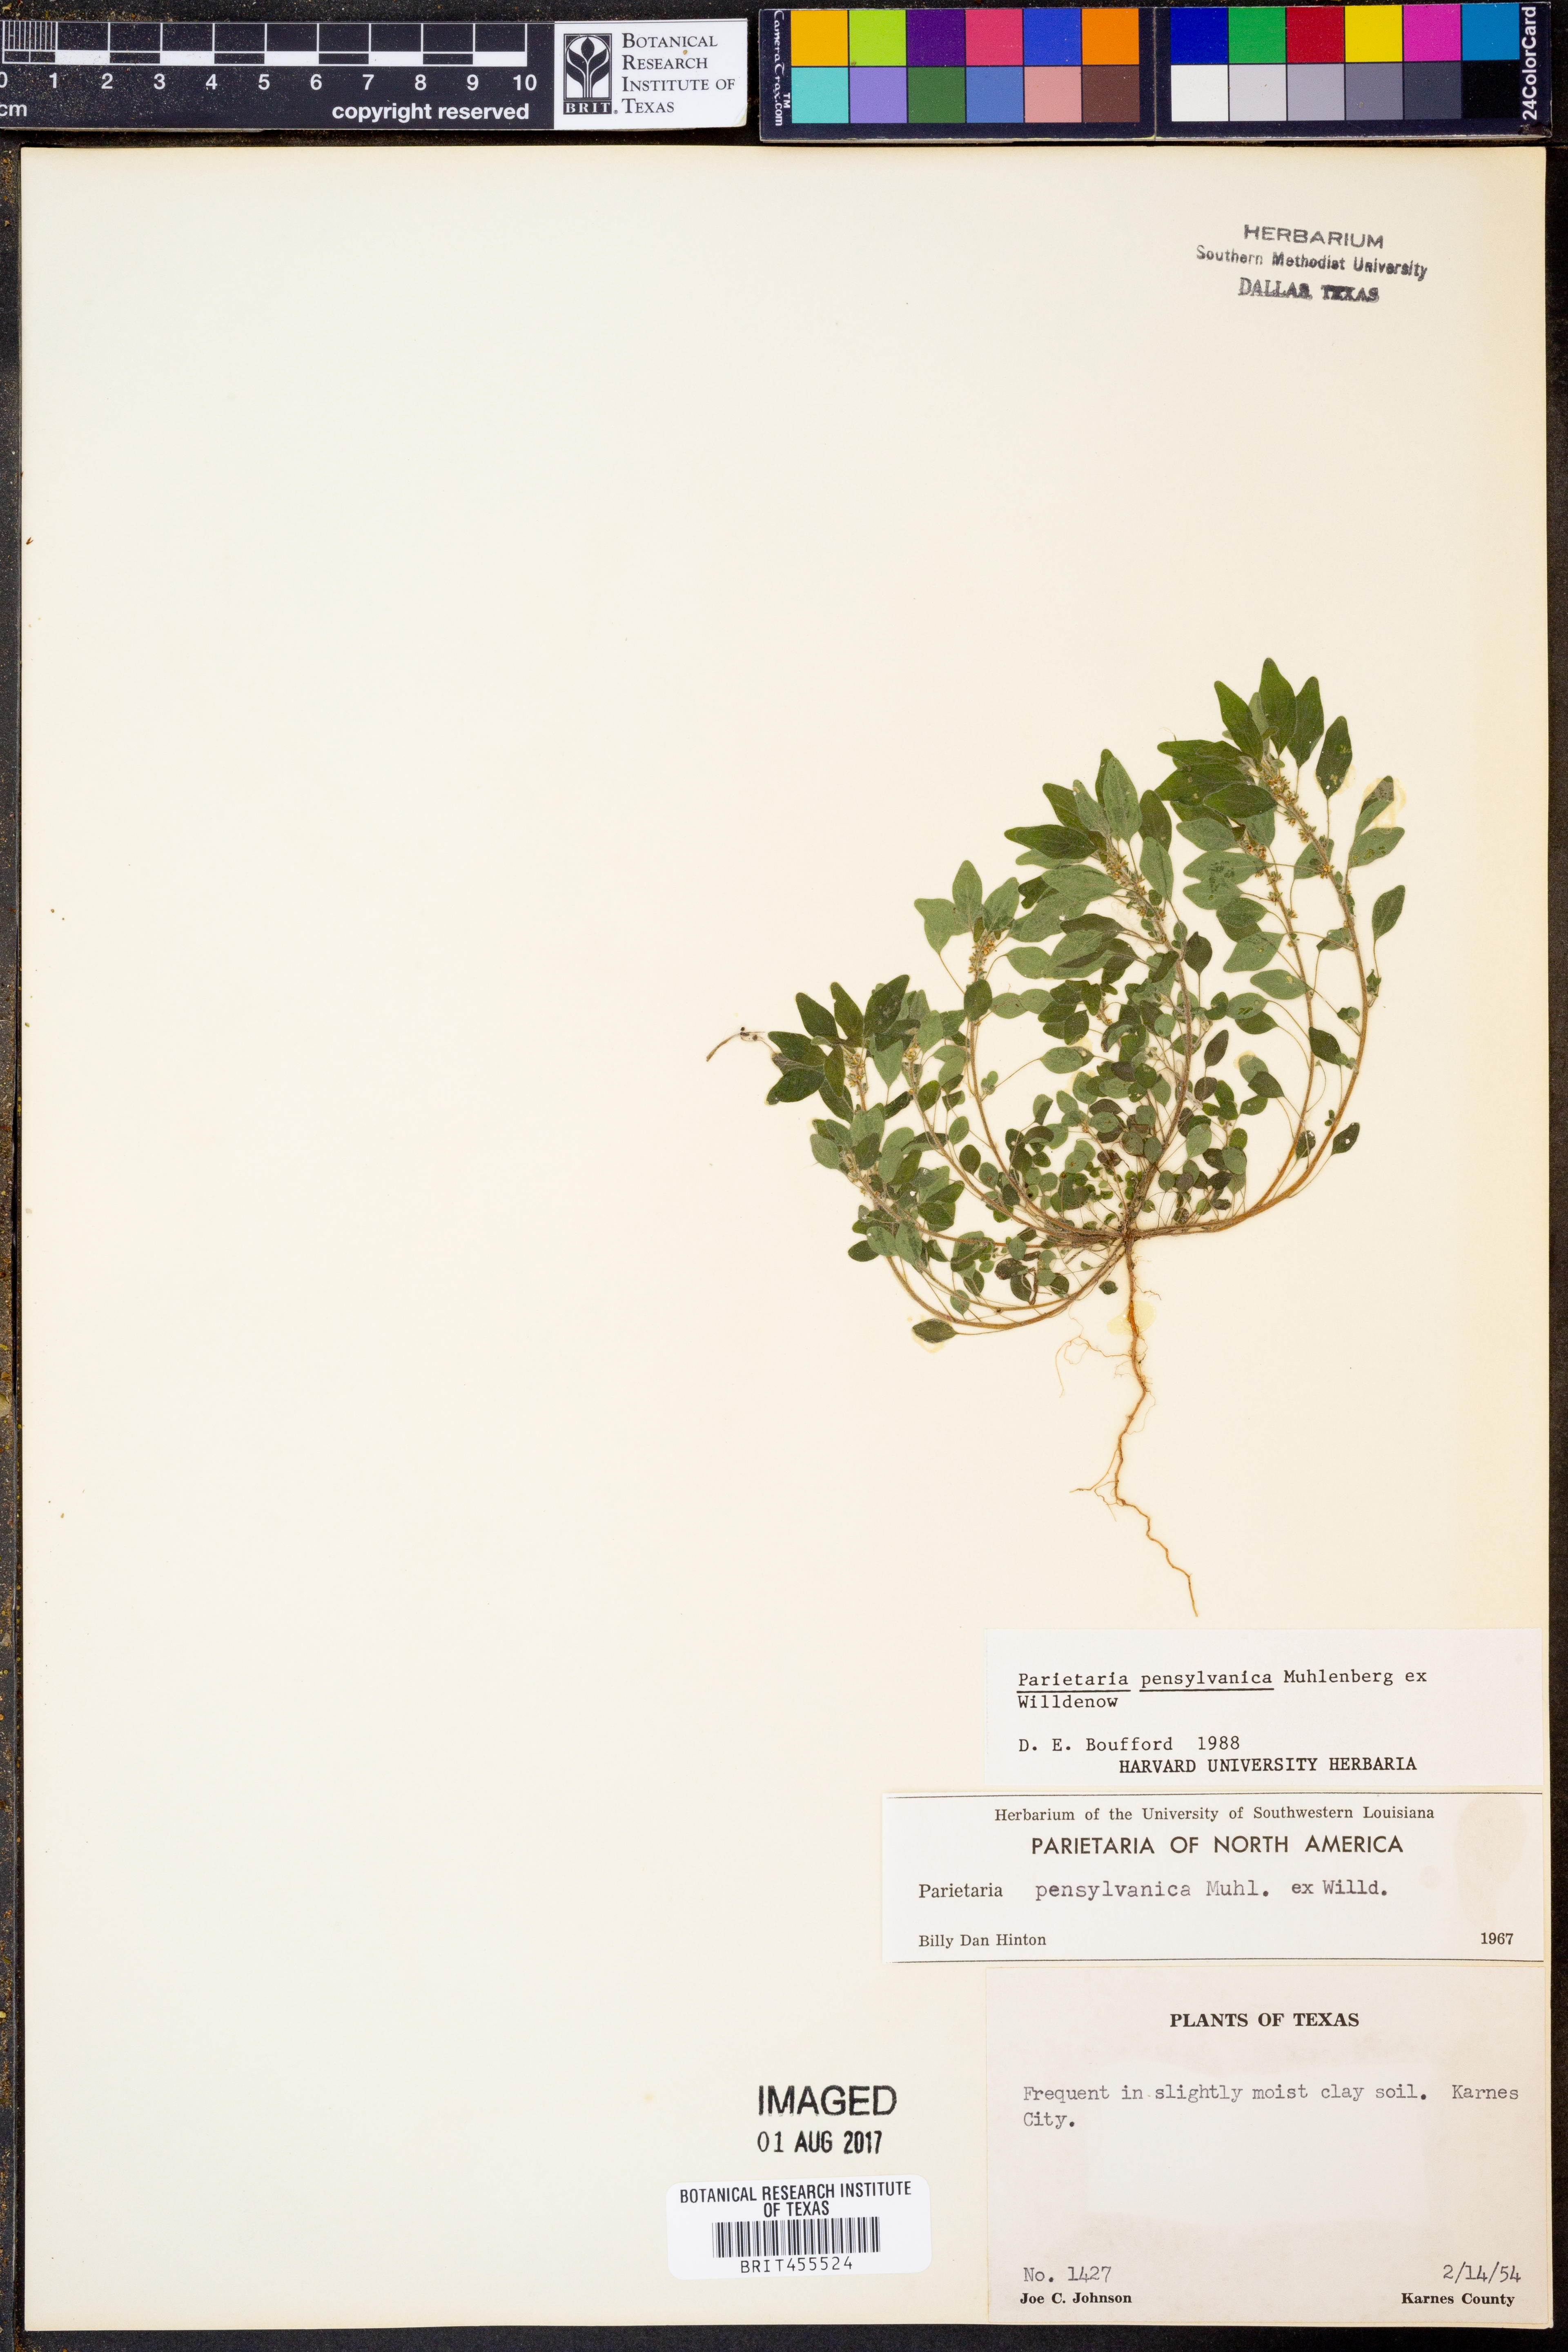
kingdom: Plantae
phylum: Tracheophyta
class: Magnoliopsida
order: Rosales
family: Urticaceae
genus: Parietaria
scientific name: Parietaria pensylvanica
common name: Pennsylvania pellitory
